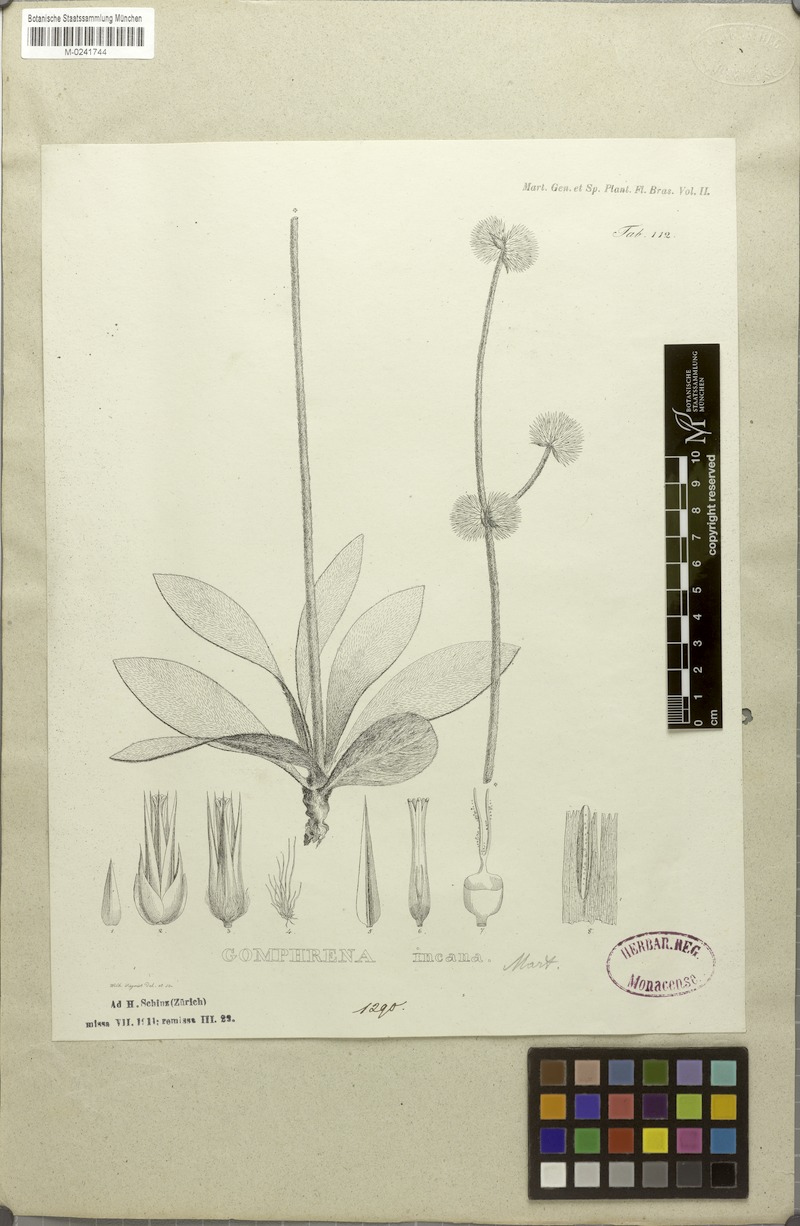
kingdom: Plantae
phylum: Tracheophyta
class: Magnoliopsida
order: Caryophyllales
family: Amaranthaceae
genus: Gomphrena
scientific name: Gomphrena incana
